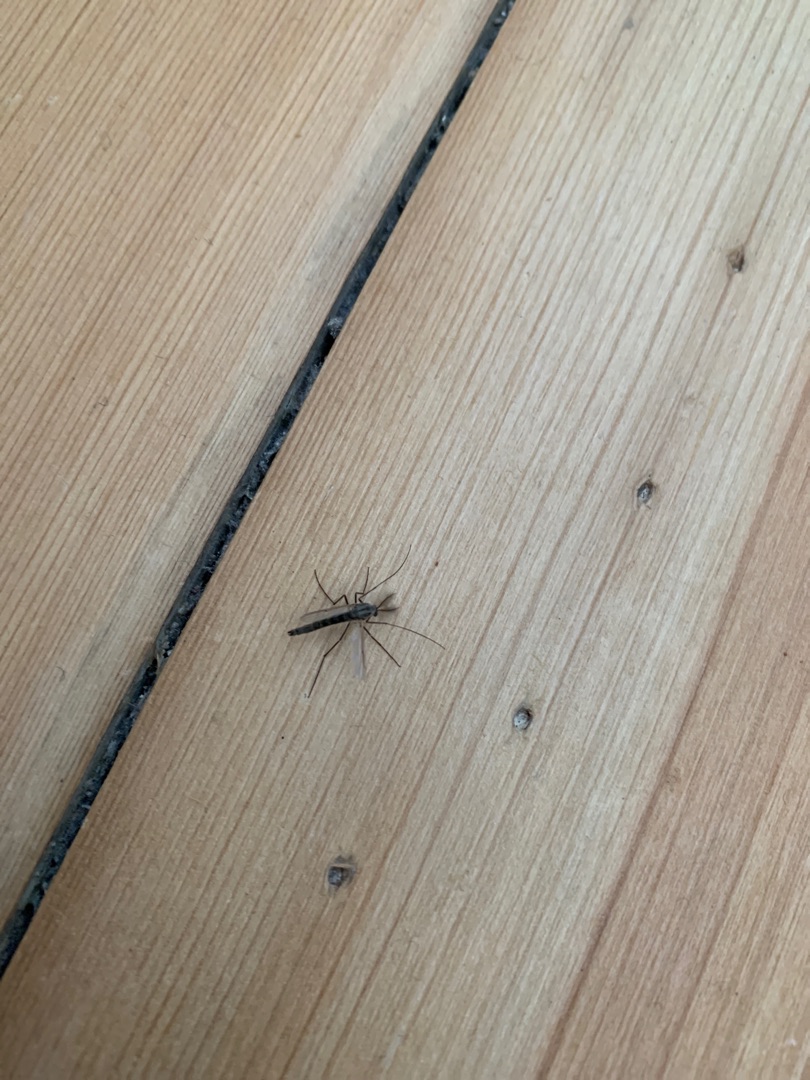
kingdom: Animalia
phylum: Arthropoda
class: Insecta
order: Diptera
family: Chironomidae
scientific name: Chironomidae
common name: Dansemyg
